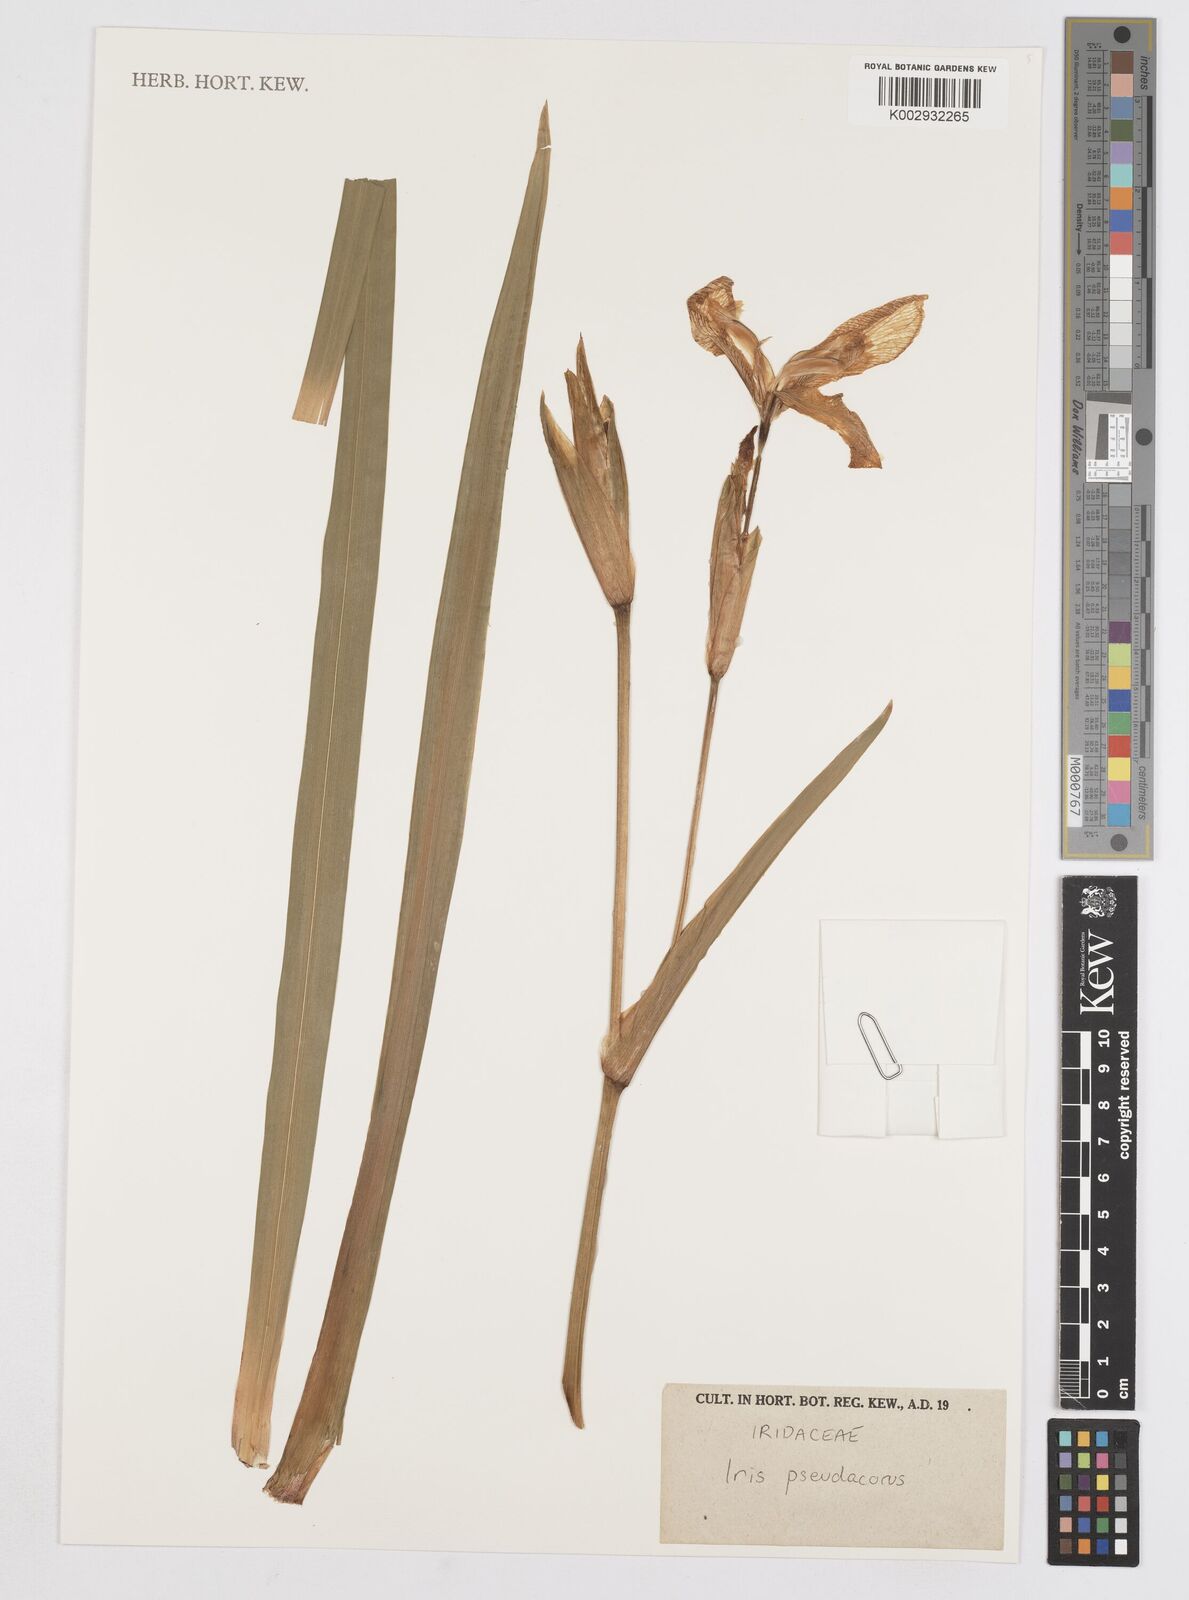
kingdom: Plantae
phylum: Tracheophyta
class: Liliopsida
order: Asparagales
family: Iridaceae
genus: Iris
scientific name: Iris pseudacorus
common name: Yellow flag
